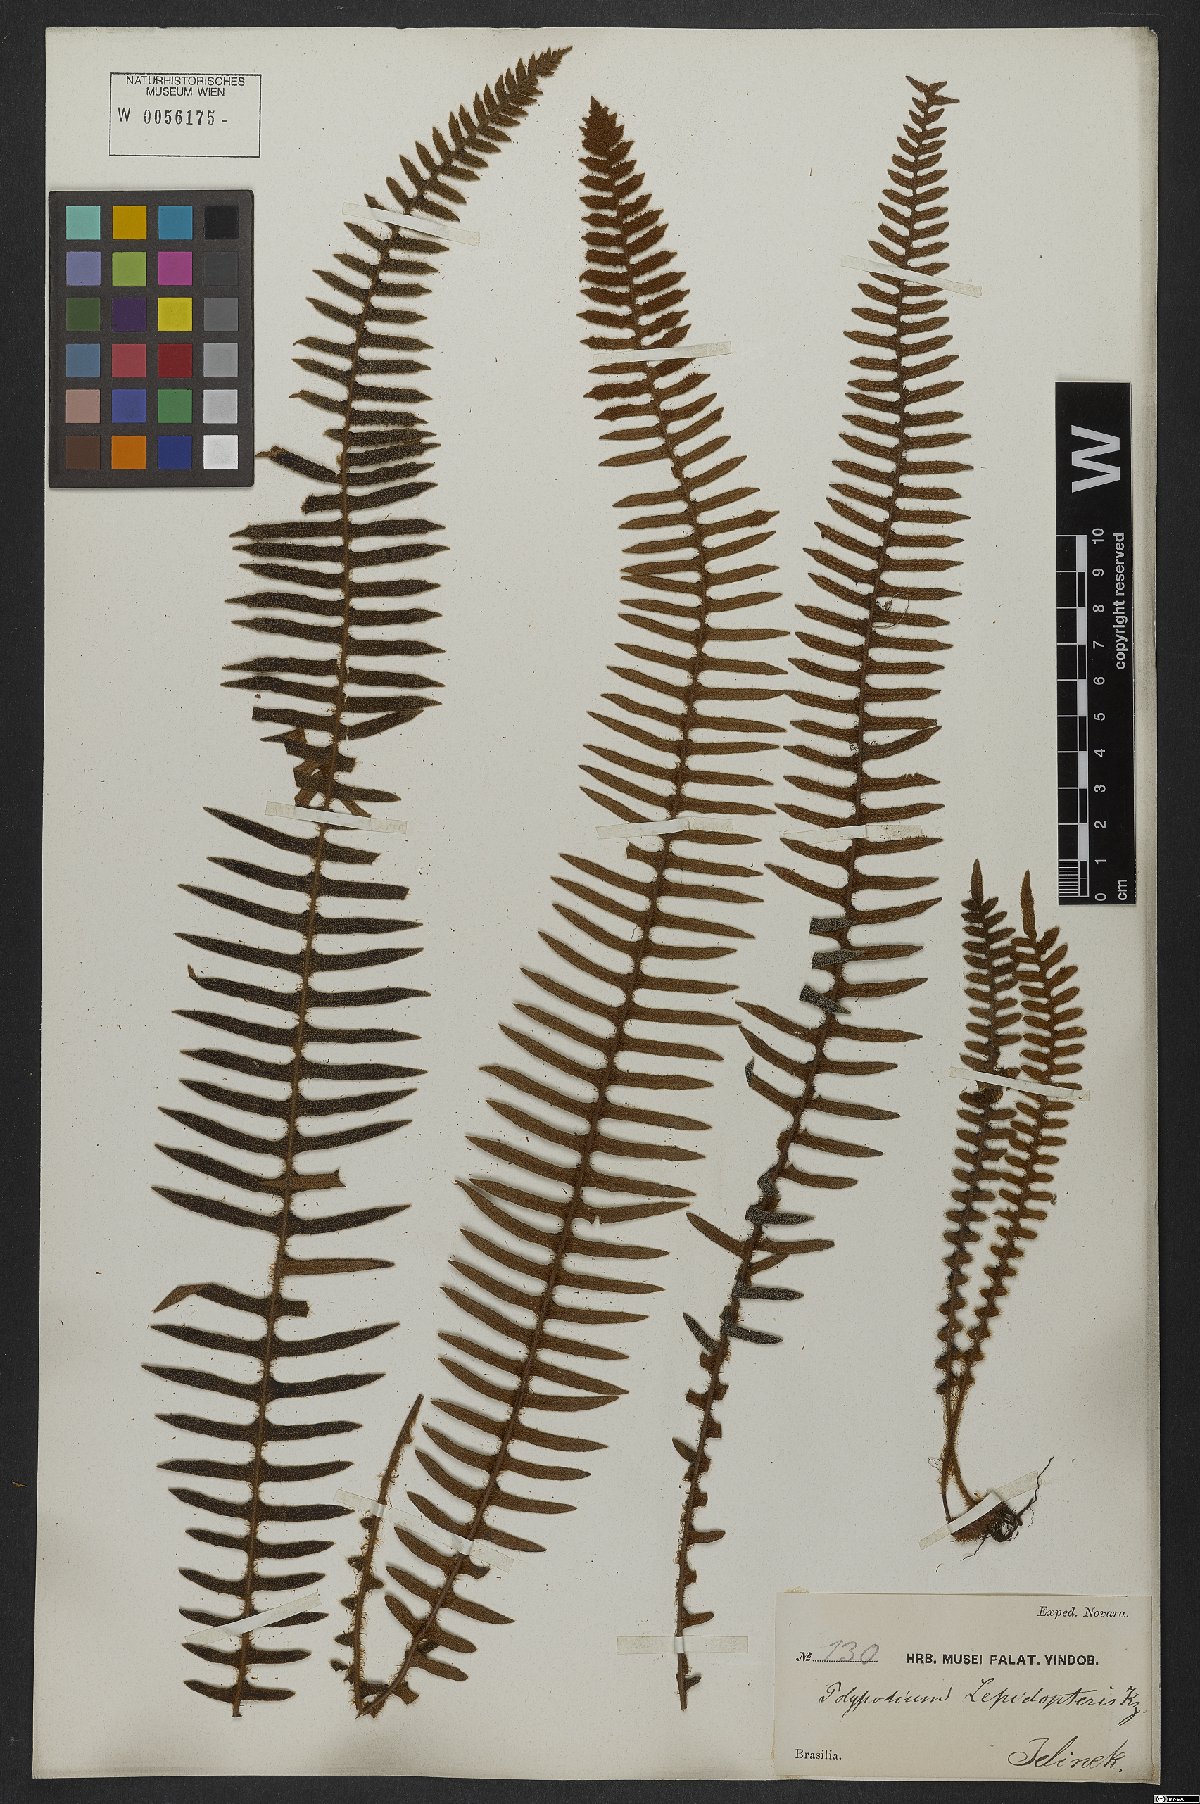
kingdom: Plantae
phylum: Tracheophyta
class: Polypodiopsida
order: Polypodiales
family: Polypodiaceae
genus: Pleopeltis
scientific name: Pleopeltis lepidopteris
